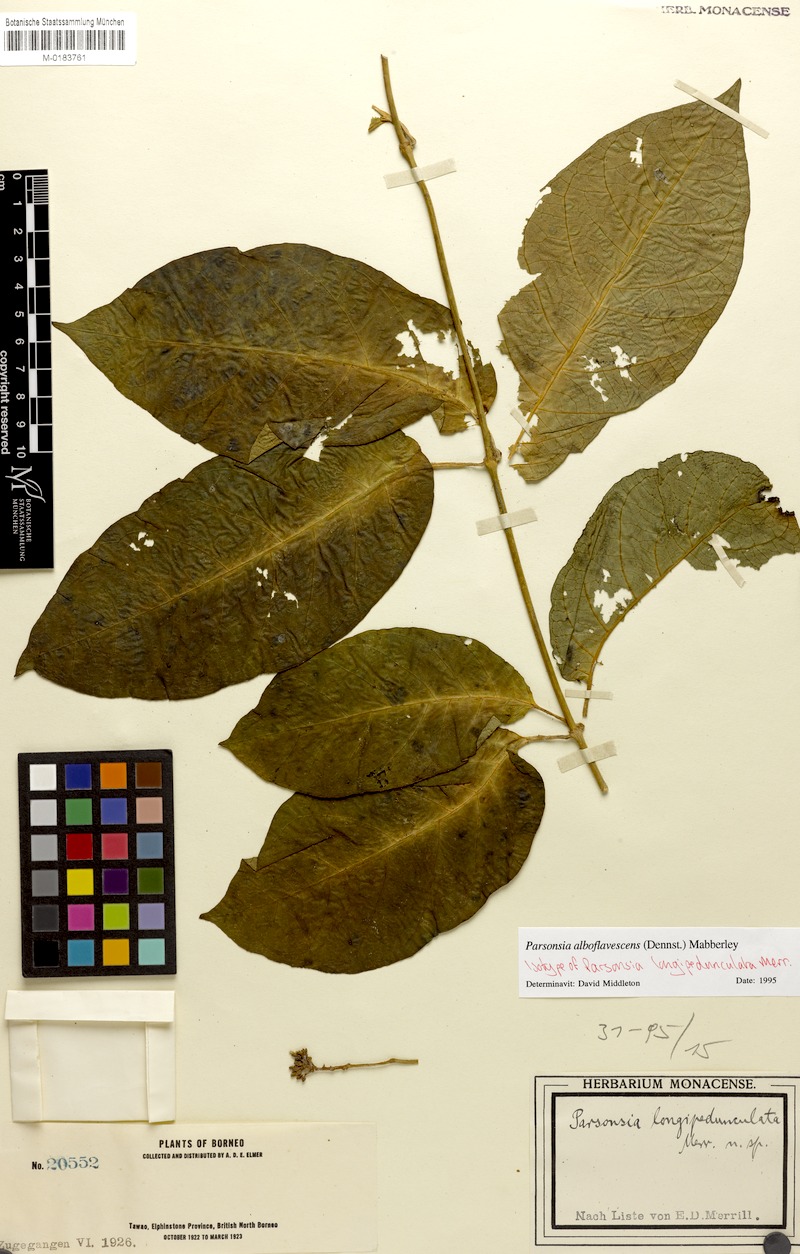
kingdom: Plantae
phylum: Tracheophyta
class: Magnoliopsida
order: Gentianales
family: Apocynaceae
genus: Parsonsia
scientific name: Parsonsia alboflavescens
